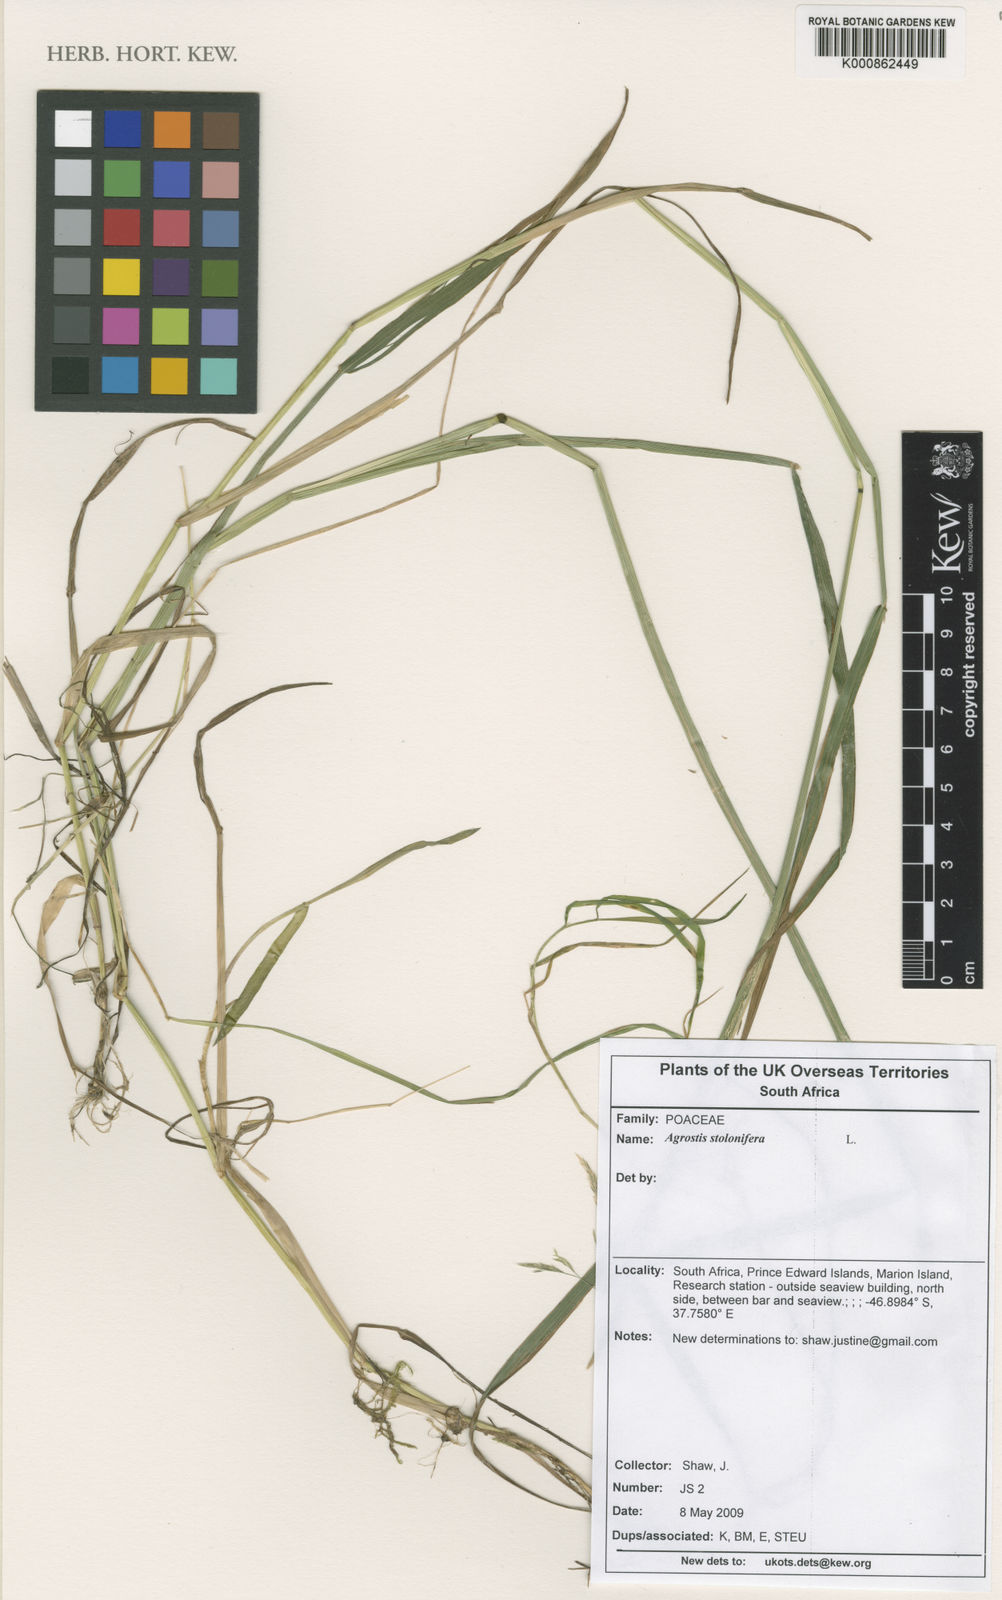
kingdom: Plantae
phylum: Tracheophyta
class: Liliopsida
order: Poales
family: Poaceae
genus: Agrostis
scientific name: Agrostis stolonifera
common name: Creeping bentgrass
